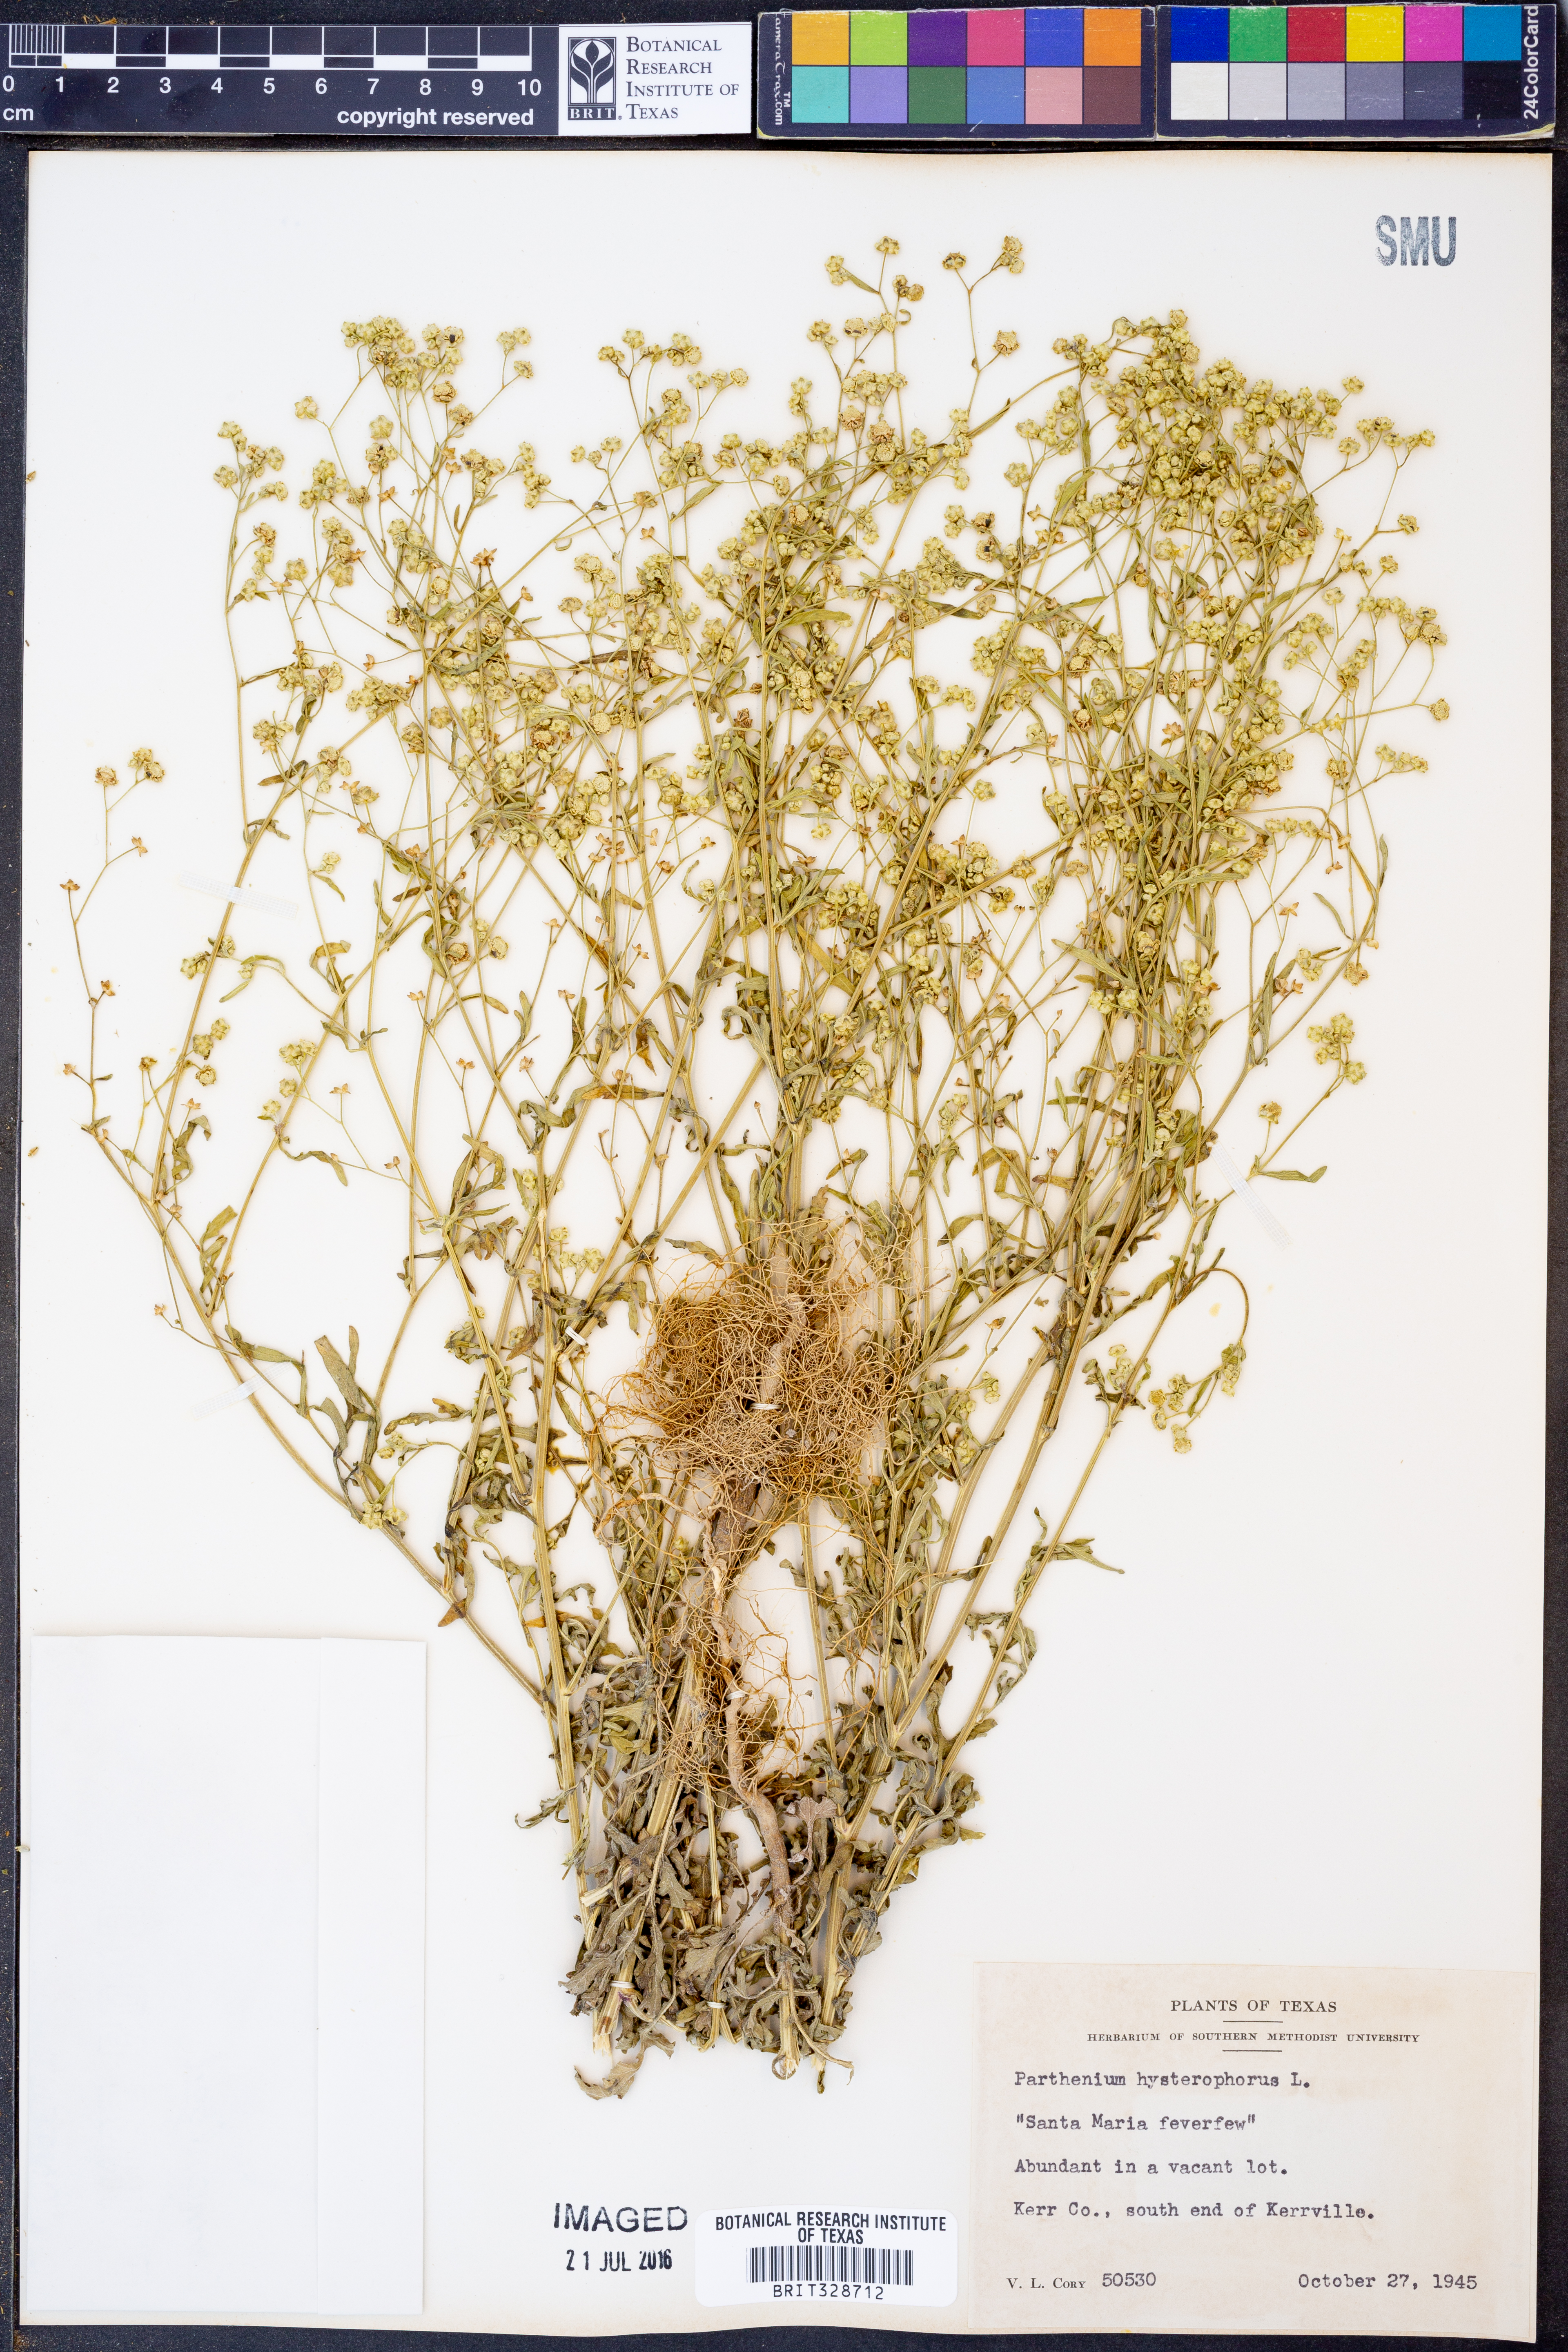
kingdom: Plantae
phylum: Tracheophyta
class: Magnoliopsida
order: Asterales
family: Asteraceae
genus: Parthenium
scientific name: Parthenium hysterophorus
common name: Santa maria feverfew
